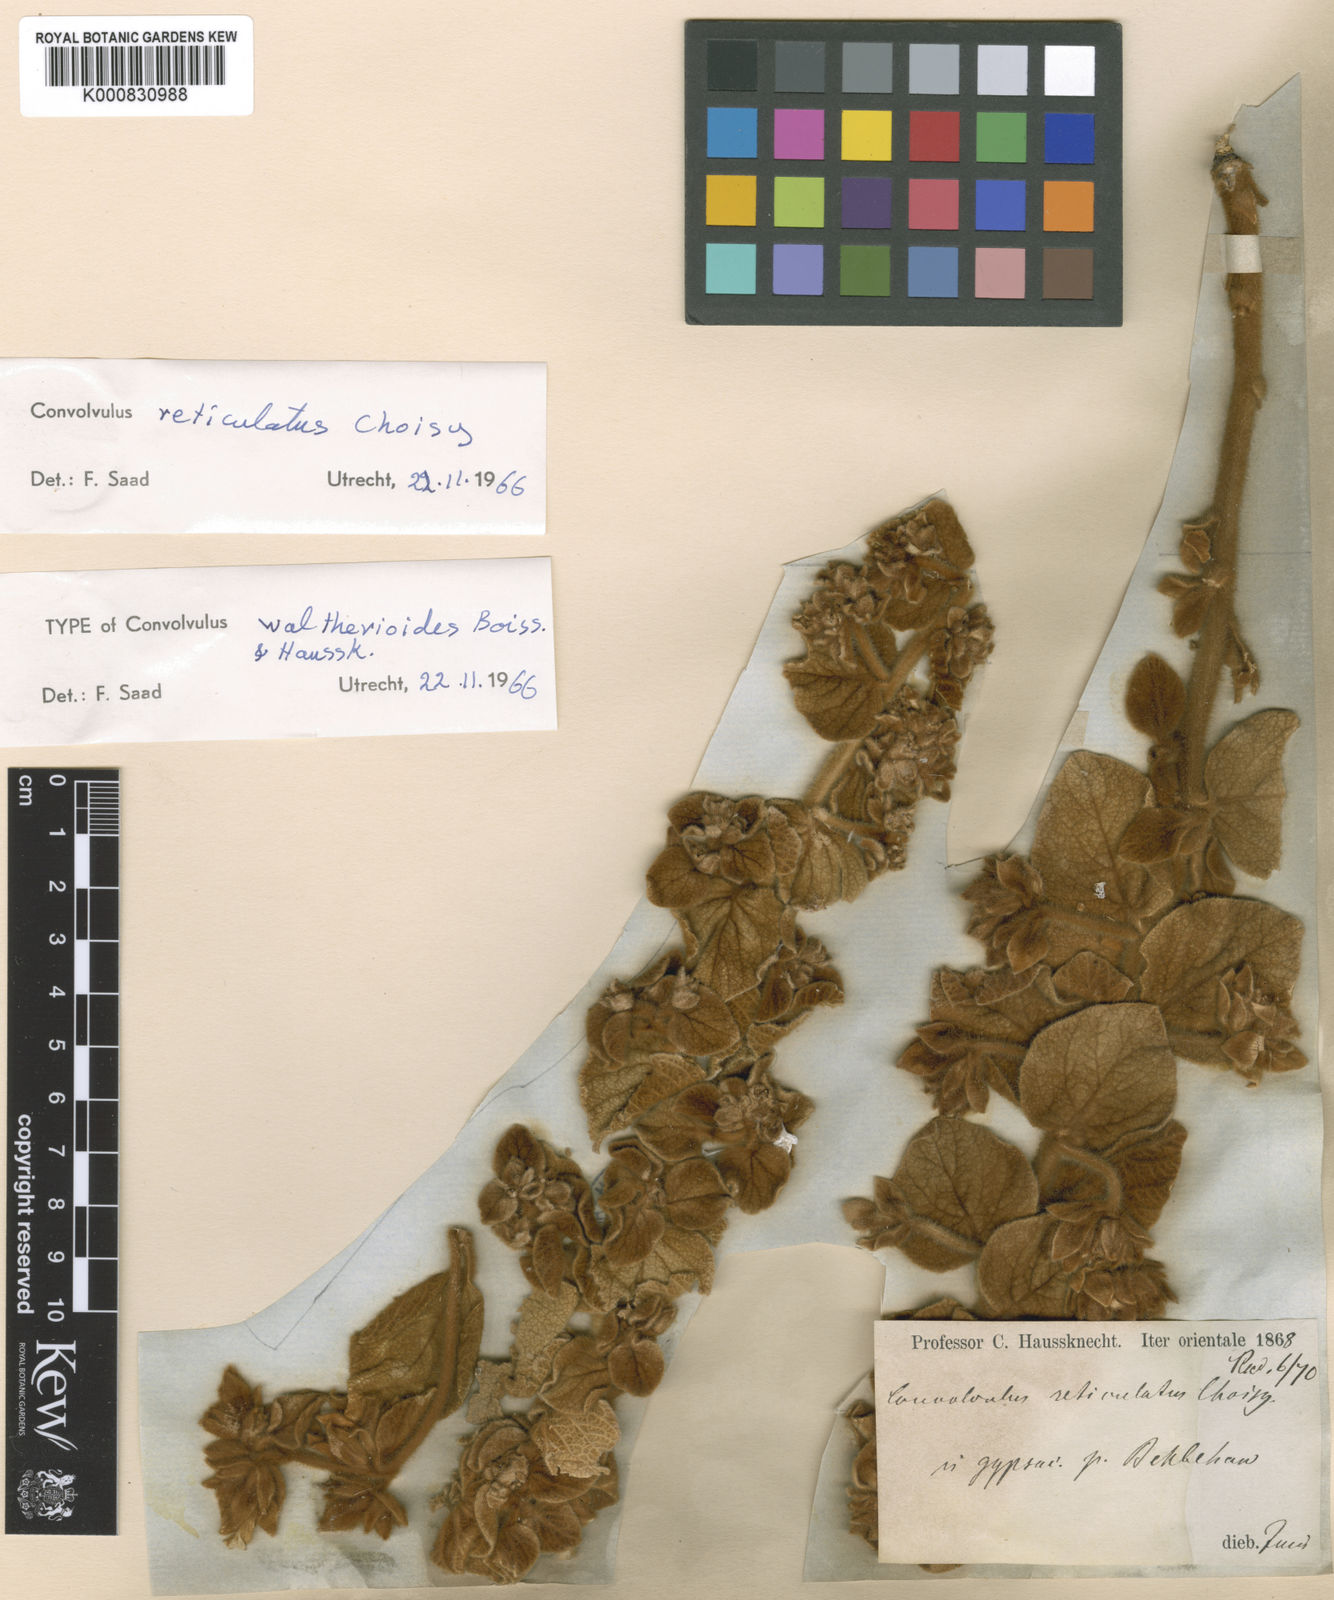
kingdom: Plantae
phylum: Tracheophyta
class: Magnoliopsida
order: Solanales
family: Convolvulaceae
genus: Convolvulus
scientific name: Convolvulus reticulatus
